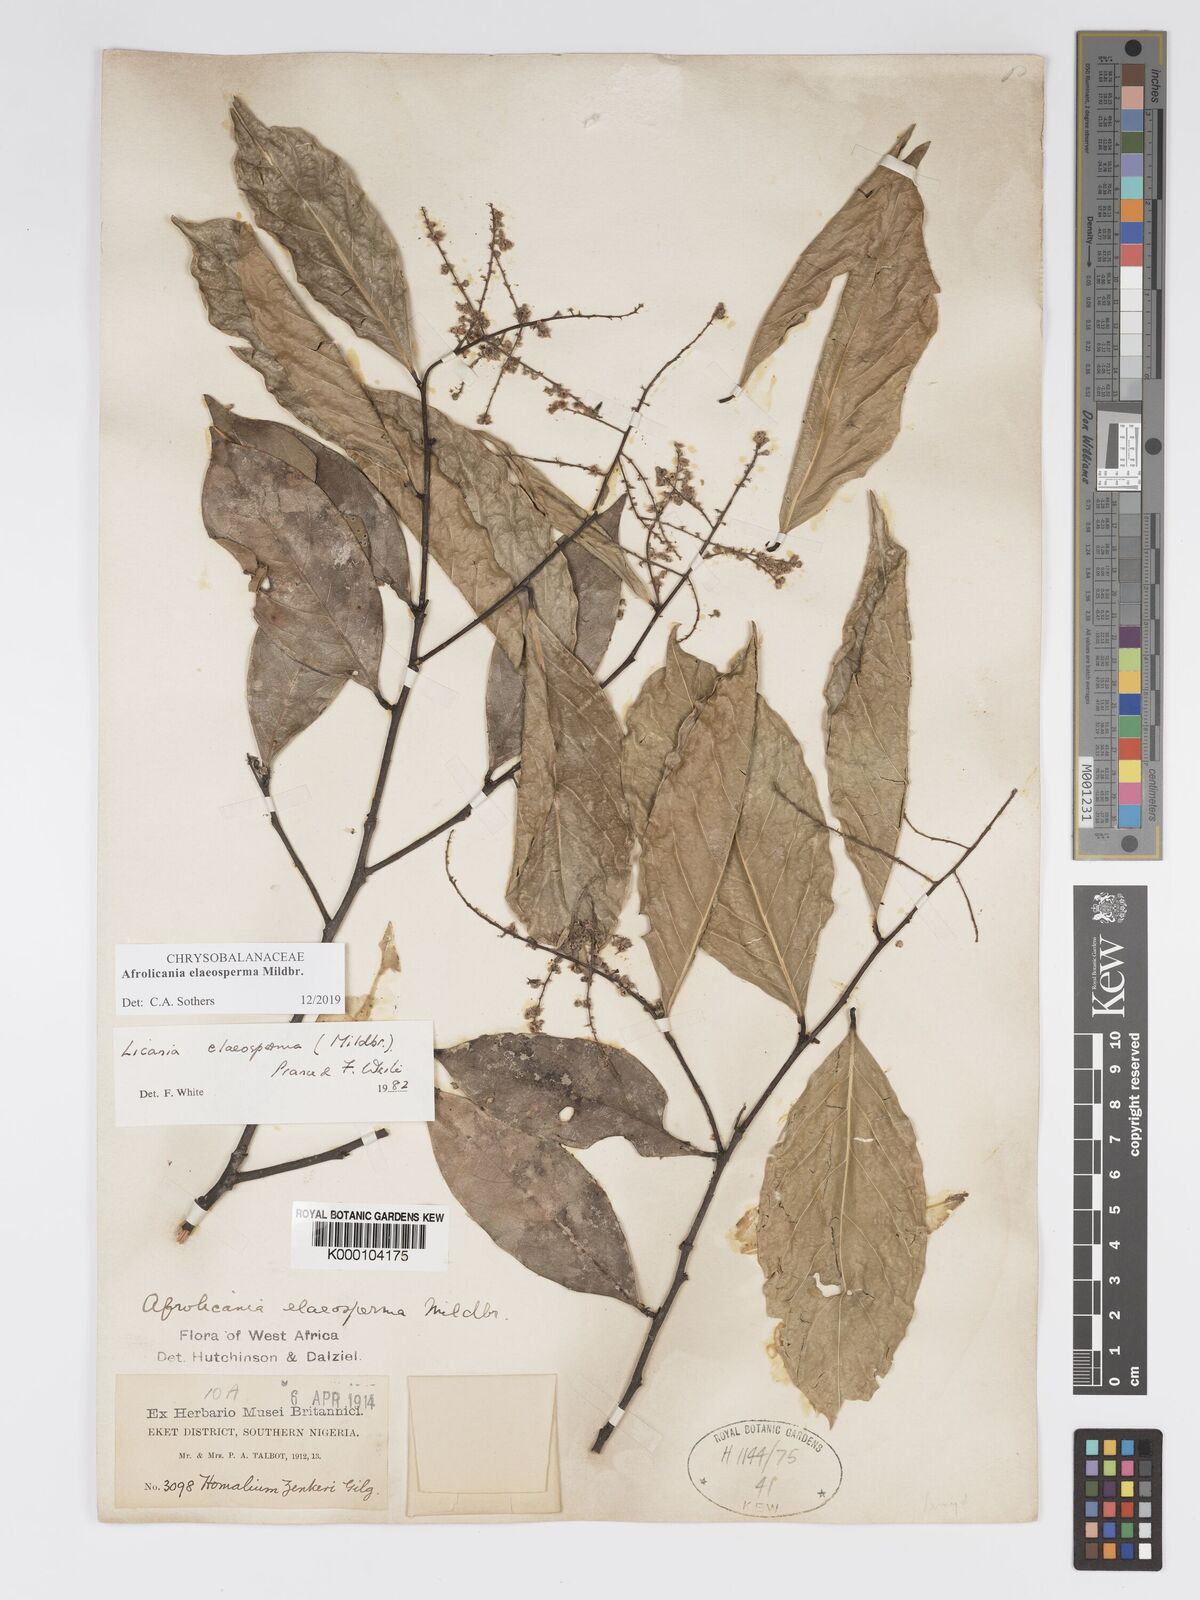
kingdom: Plantae
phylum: Tracheophyta
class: Magnoliopsida
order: Malpighiales
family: Chrysobalanaceae
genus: Afrolicania
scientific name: Afrolicania elaeosperma
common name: Nikko
